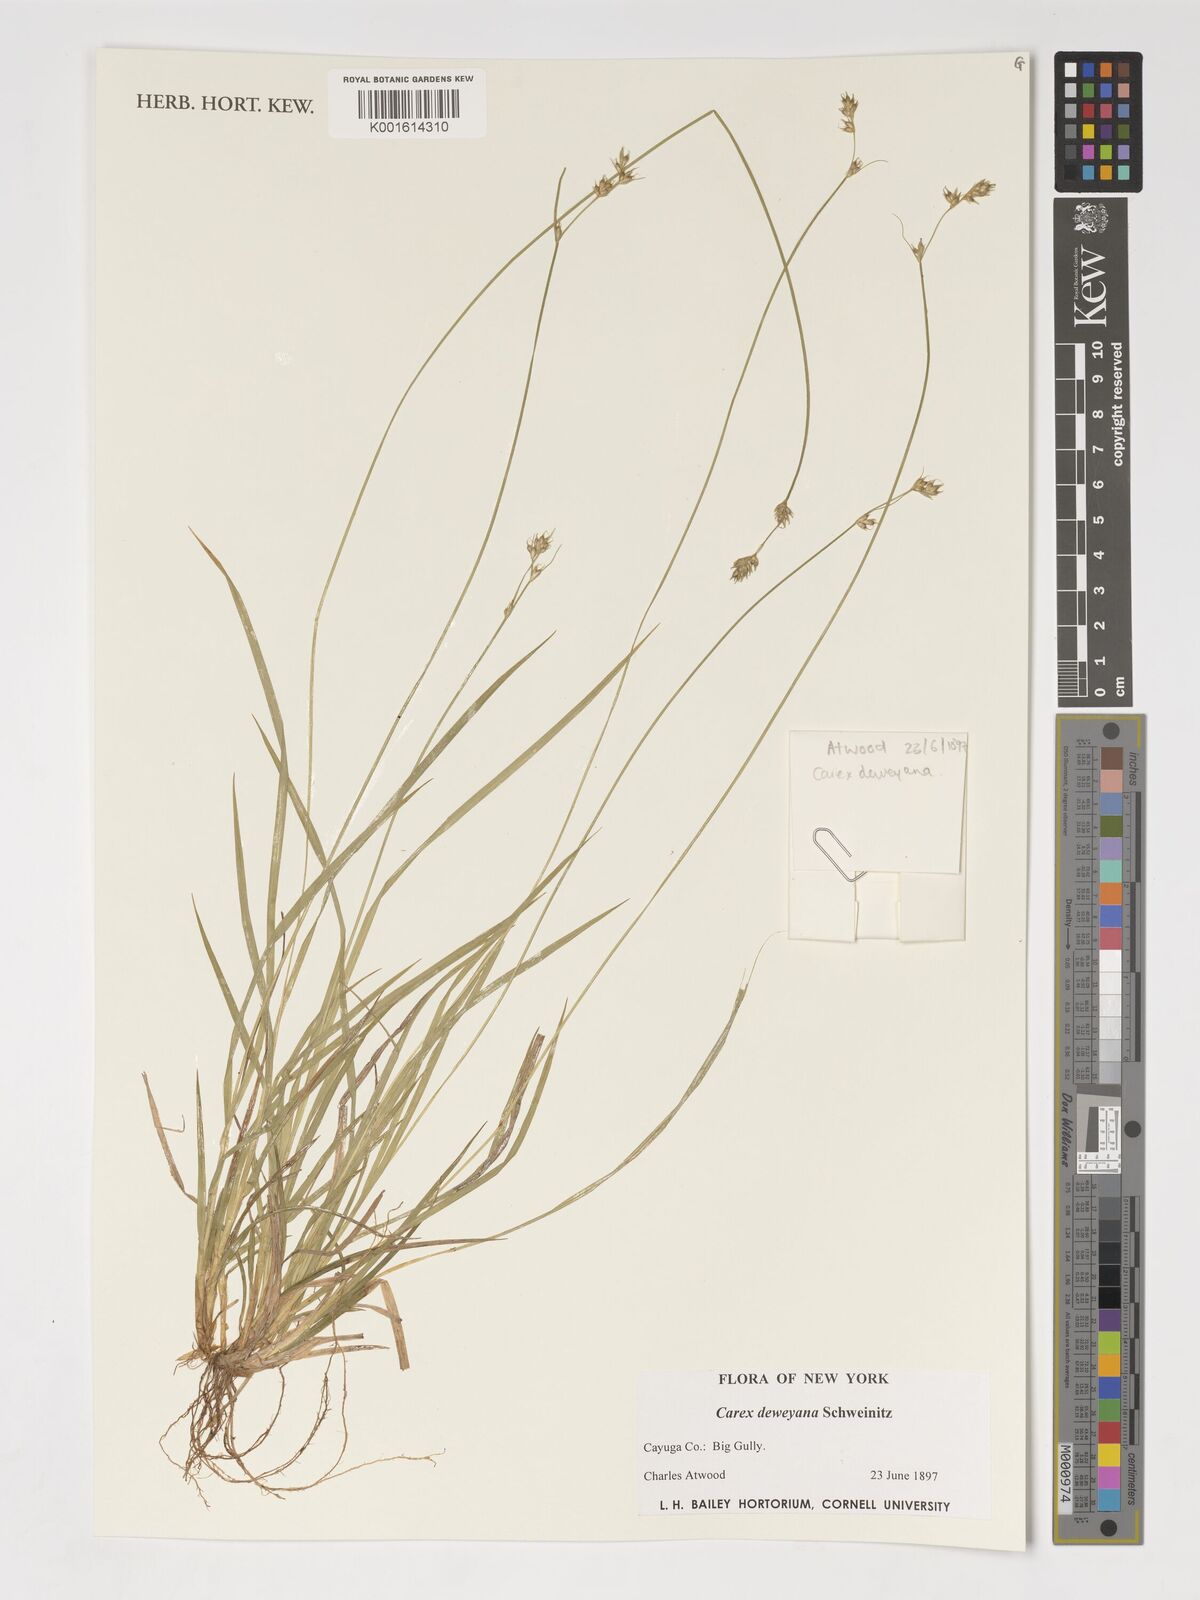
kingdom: Plantae
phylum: Tracheophyta
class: Liliopsida
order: Poales
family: Cyperaceae
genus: Carex
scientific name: Carex deweyana
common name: Dewey's sedge
